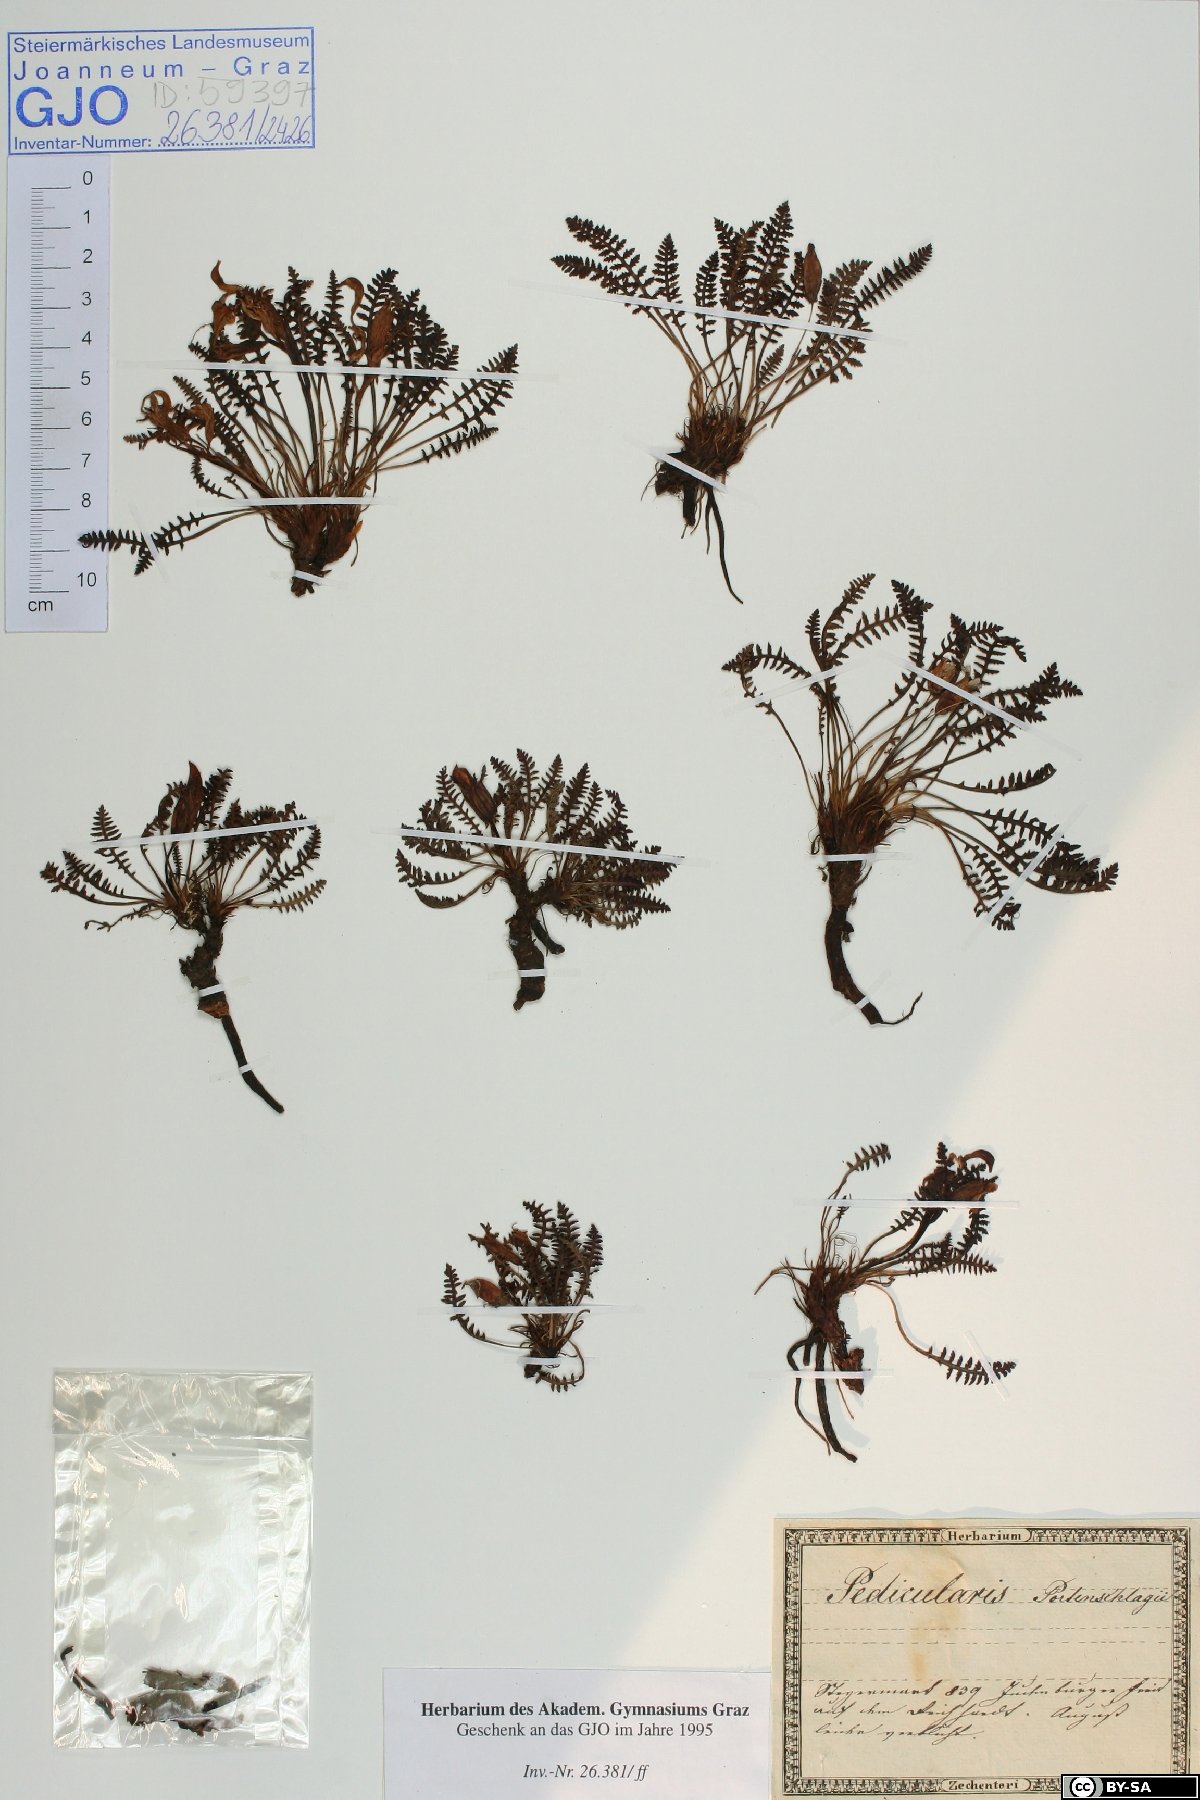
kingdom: Plantae
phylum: Tracheophyta
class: Magnoliopsida
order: Lamiales
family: Orobanchaceae
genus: Pedicularis
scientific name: Pedicularis portenschlagii
